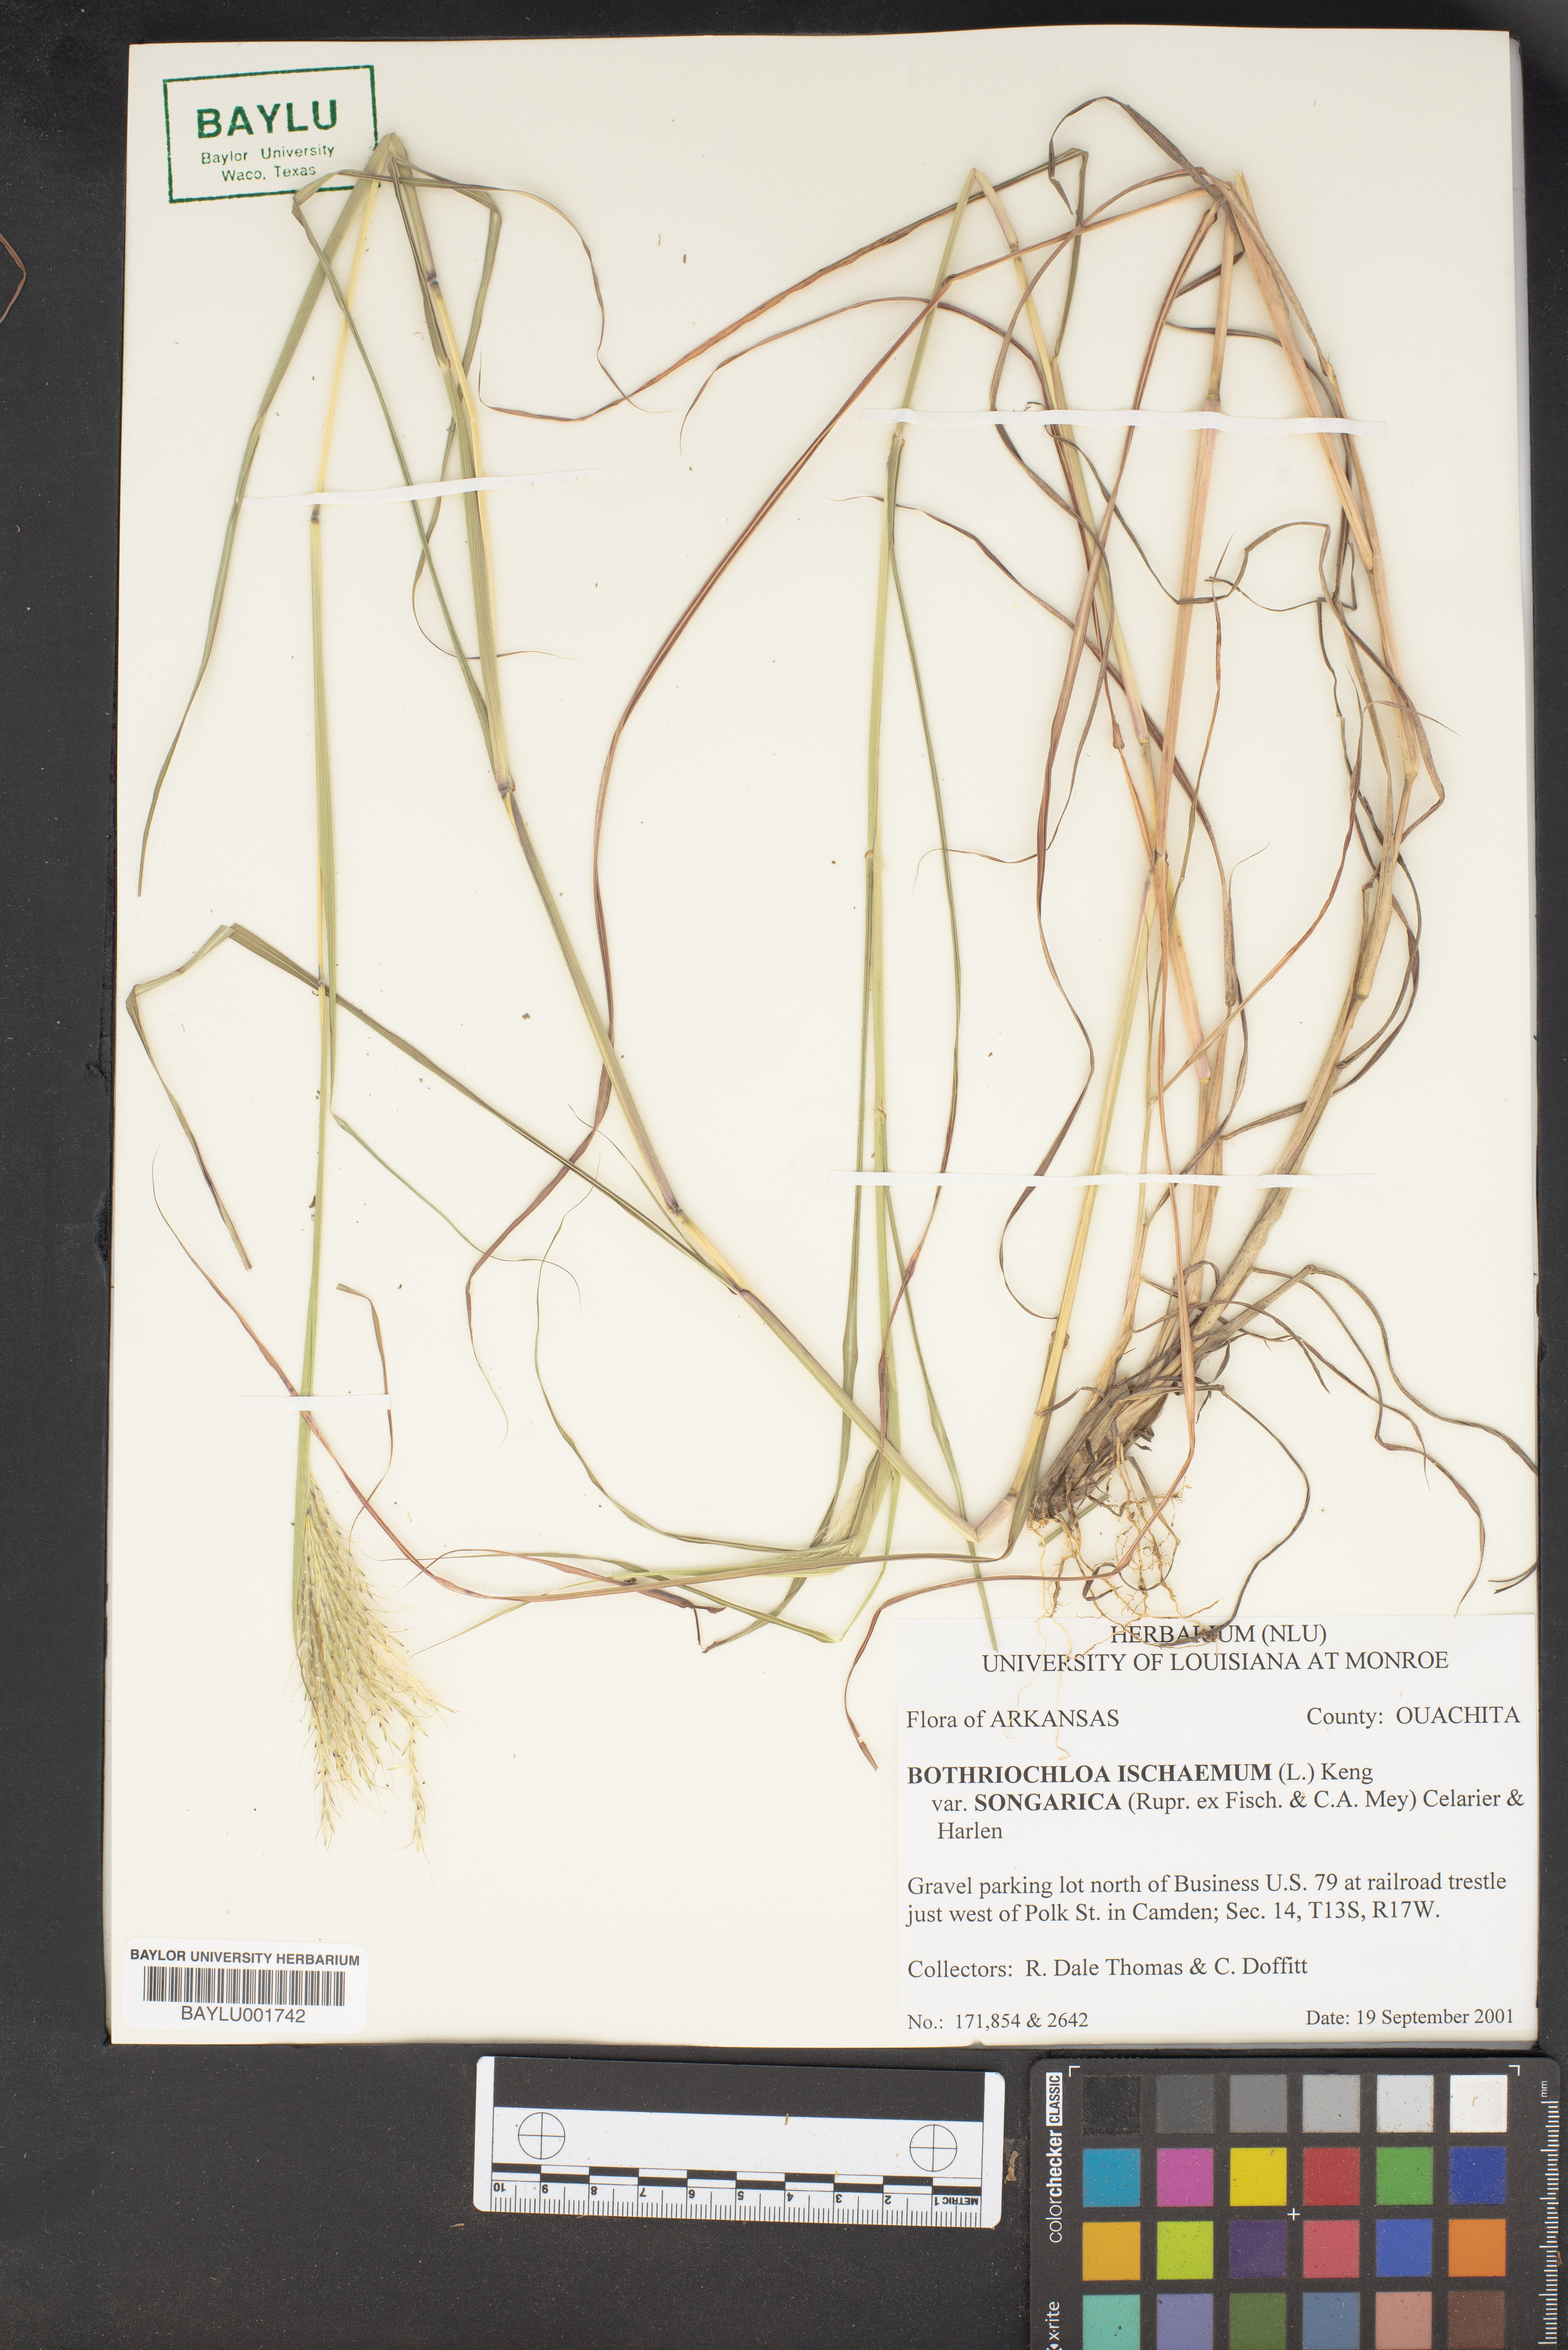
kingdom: Plantae
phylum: Tracheophyta
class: Liliopsida
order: Poales
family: Poaceae
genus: Bothriochloa
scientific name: Bothriochloa ischaemum
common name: Yellow bluestem
